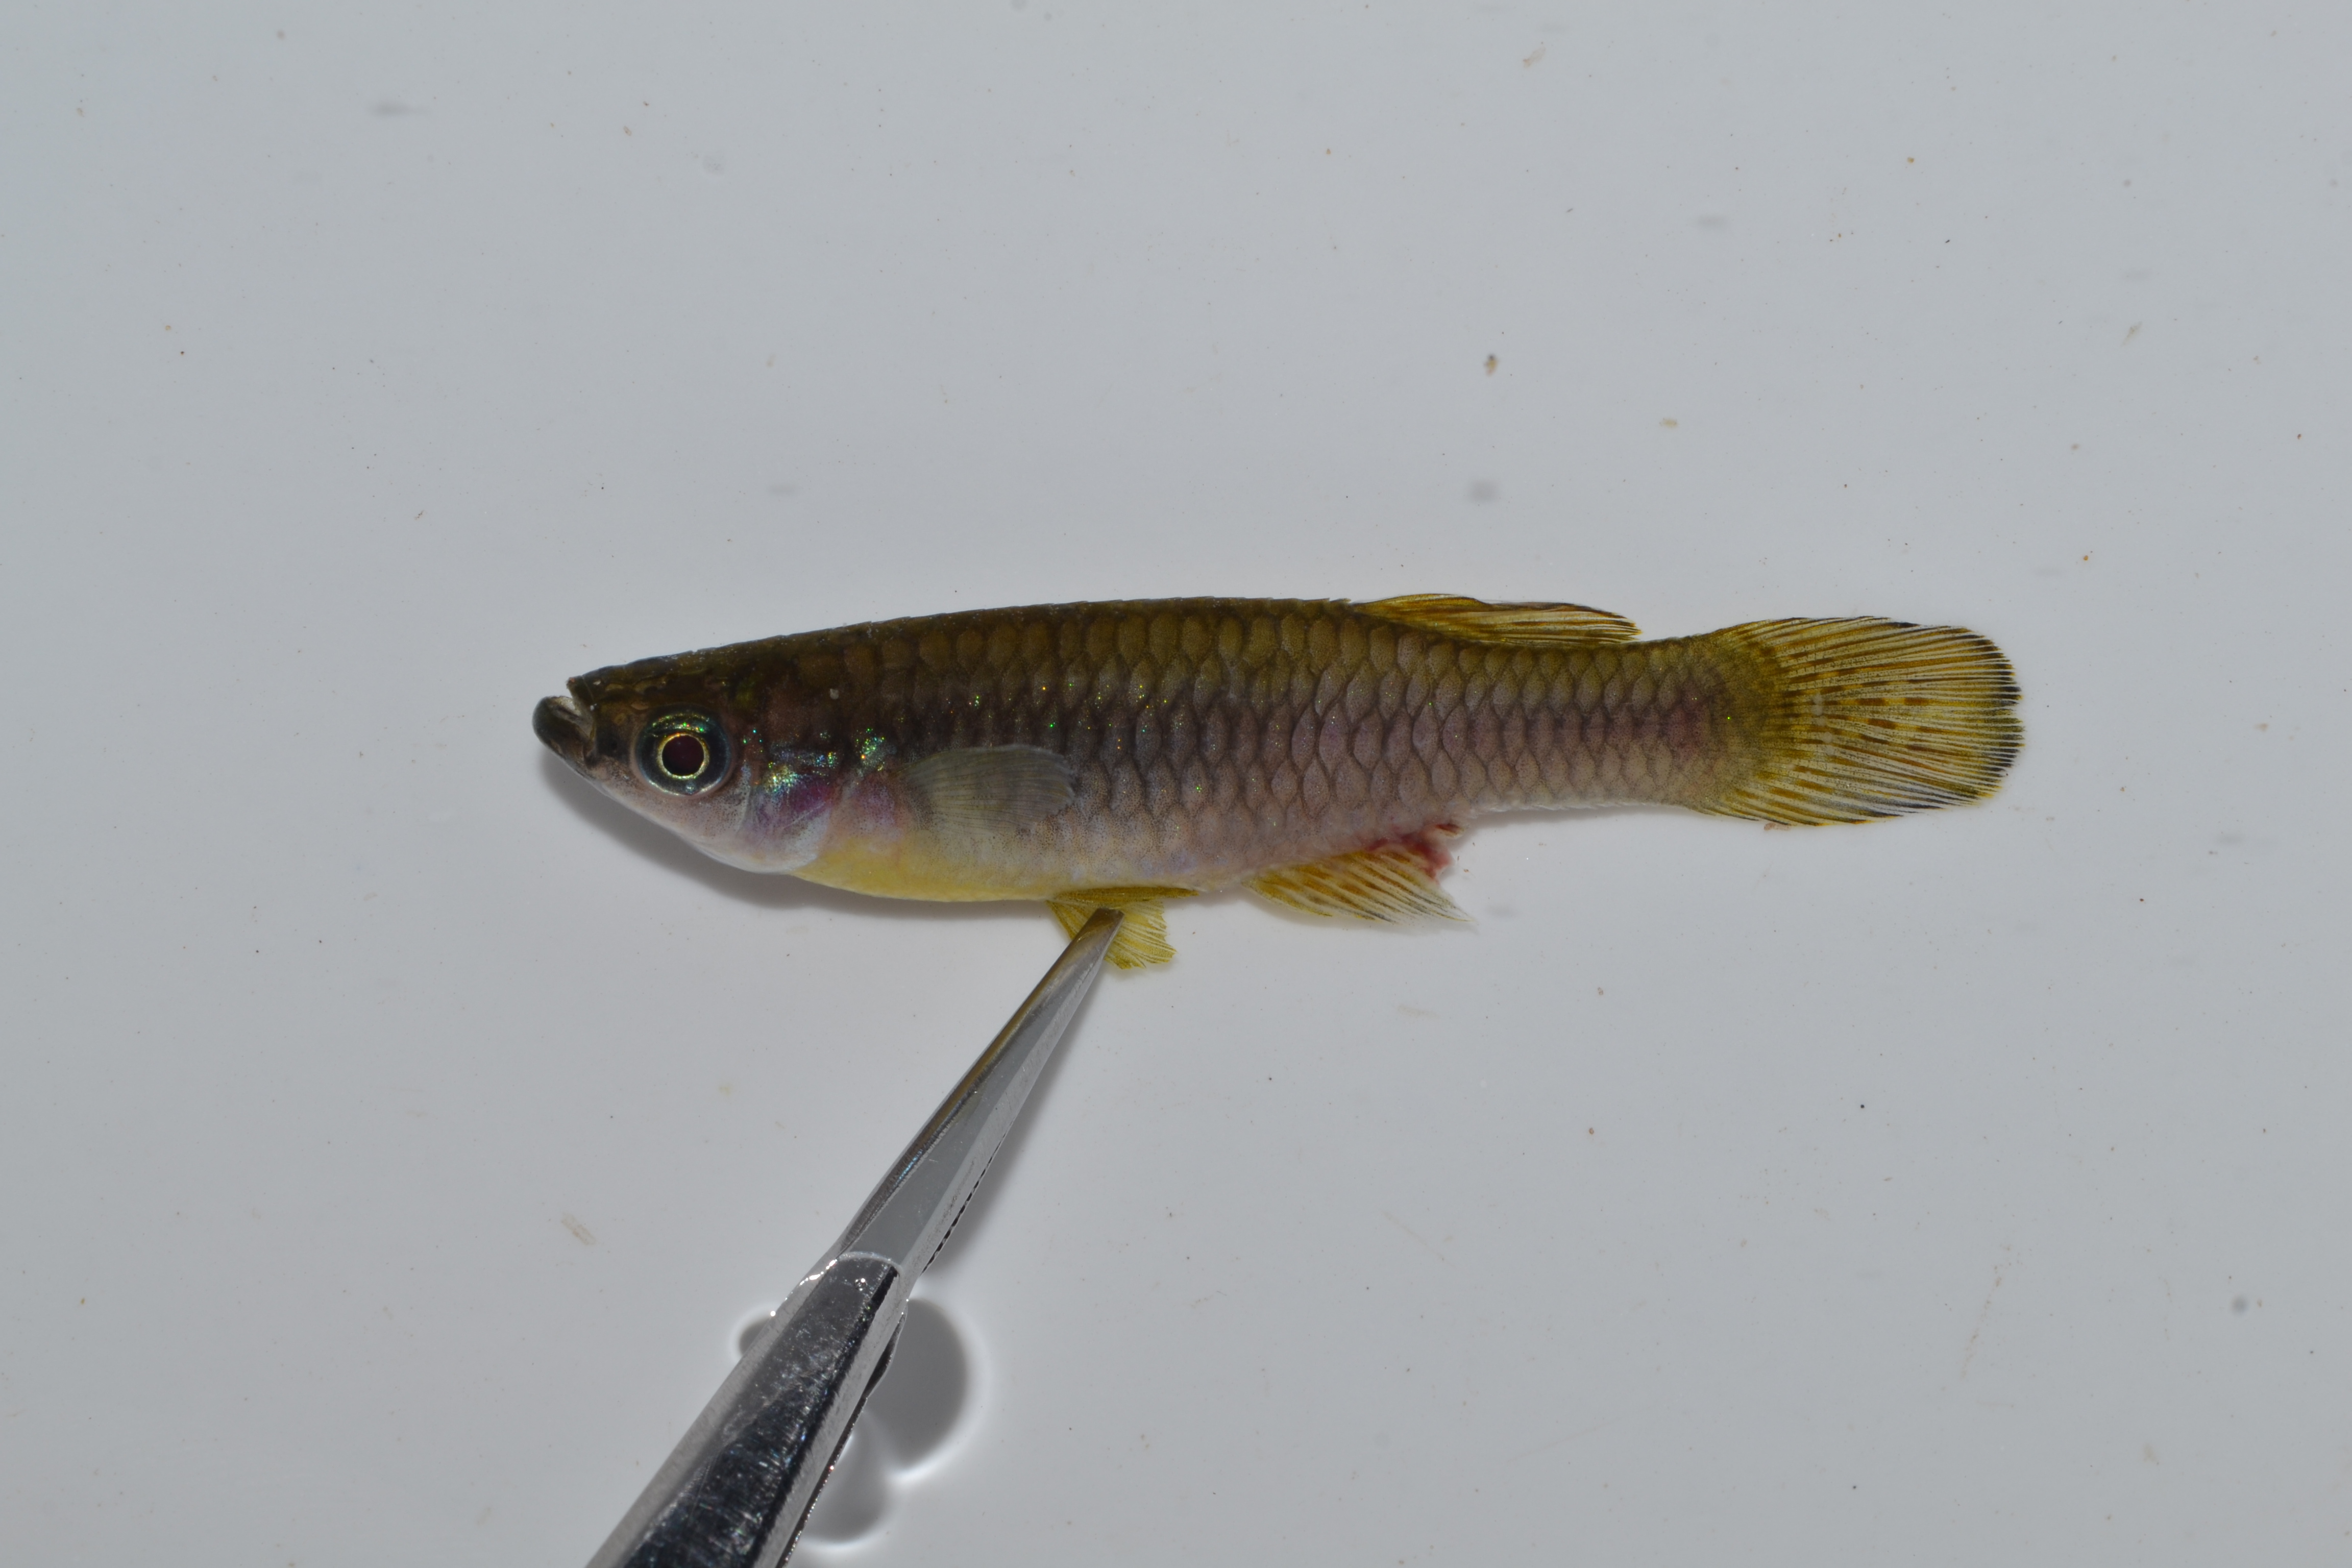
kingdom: Animalia
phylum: Chordata
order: Cyprinodontiformes
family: Poeciliidae
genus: Micropanchax
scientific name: Micropanchax johnstoni
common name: Johnston's topminnow
